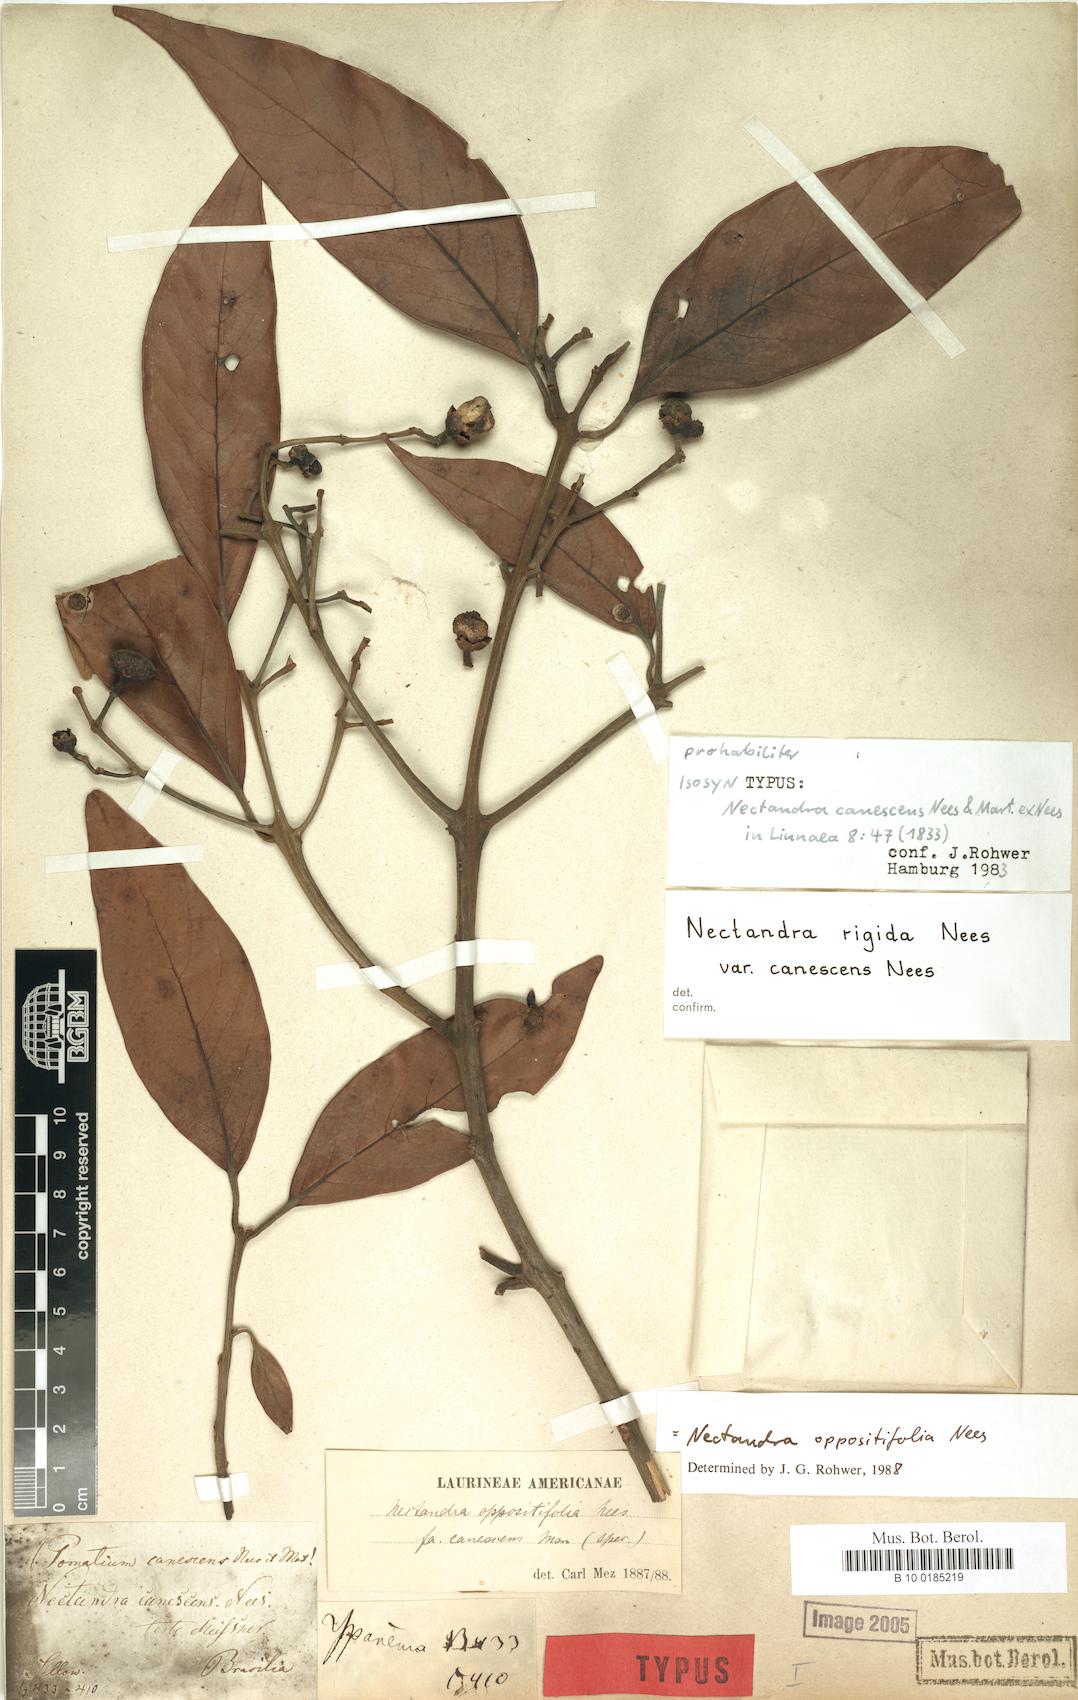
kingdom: Plantae
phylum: Tracheophyta
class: Magnoliopsida
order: Laurales
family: Lauraceae
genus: Nectandra
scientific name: Nectandra oppositifolia
